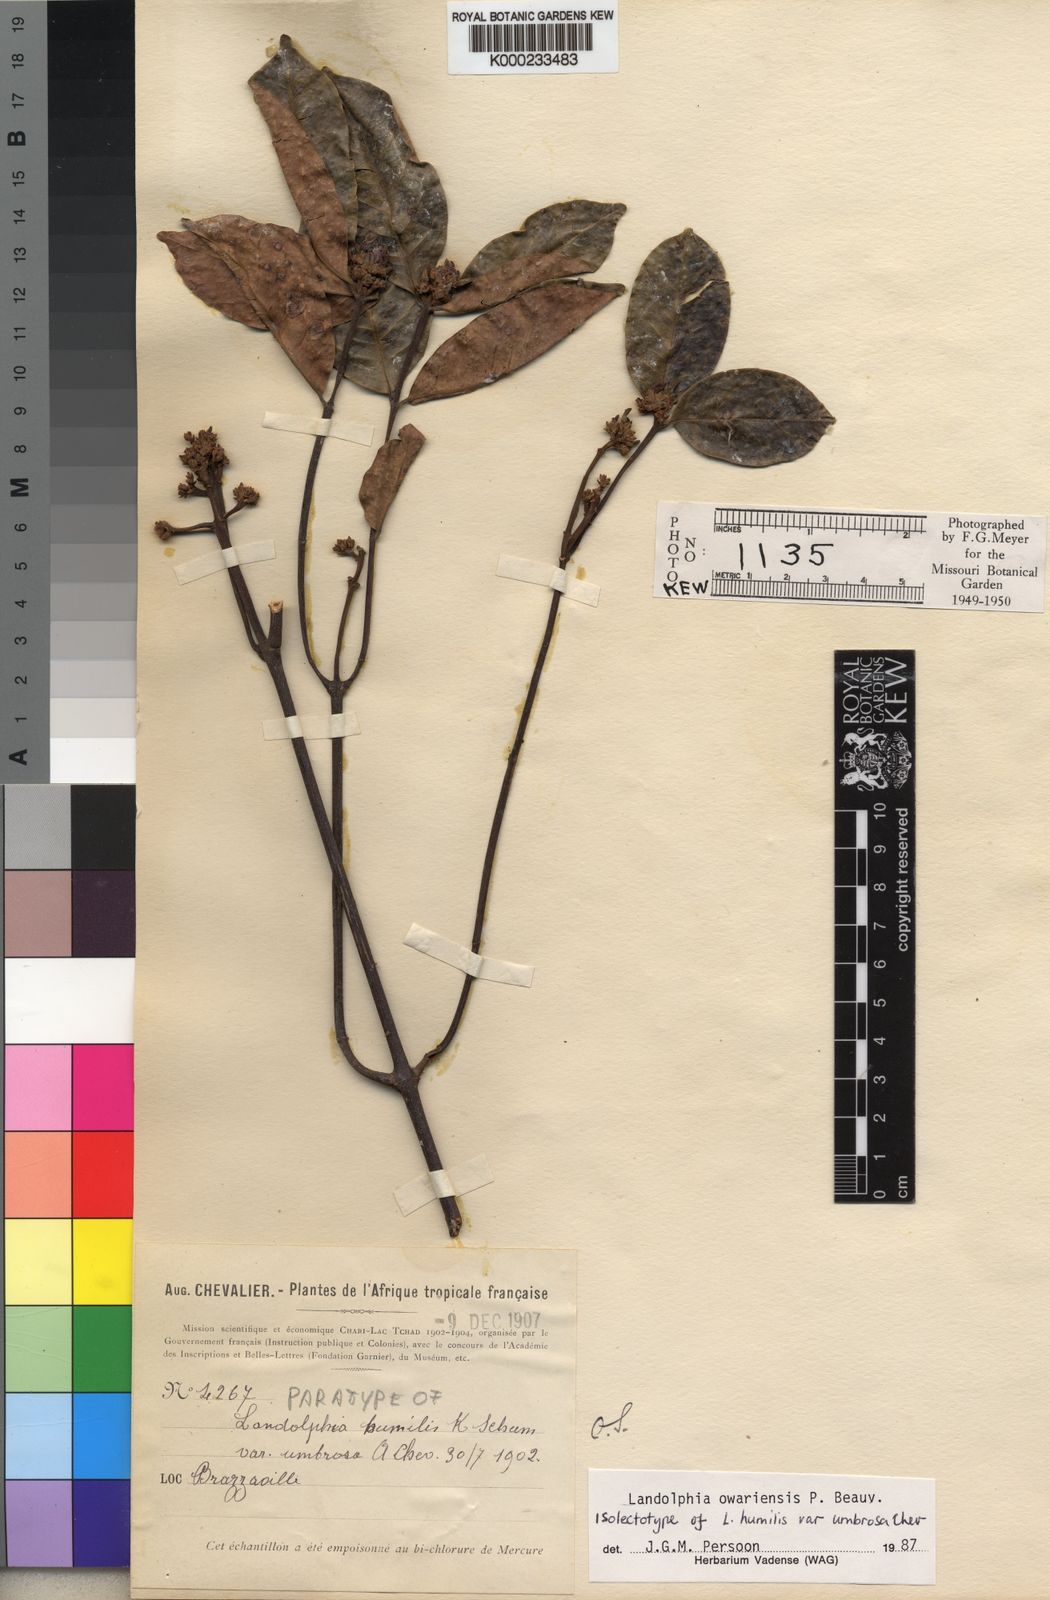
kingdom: Plantae
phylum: Tracheophyta
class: Magnoliopsida
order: Gentianales
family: Apocynaceae
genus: Landolphia
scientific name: Landolphia owariensis
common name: White-ball-rubber
